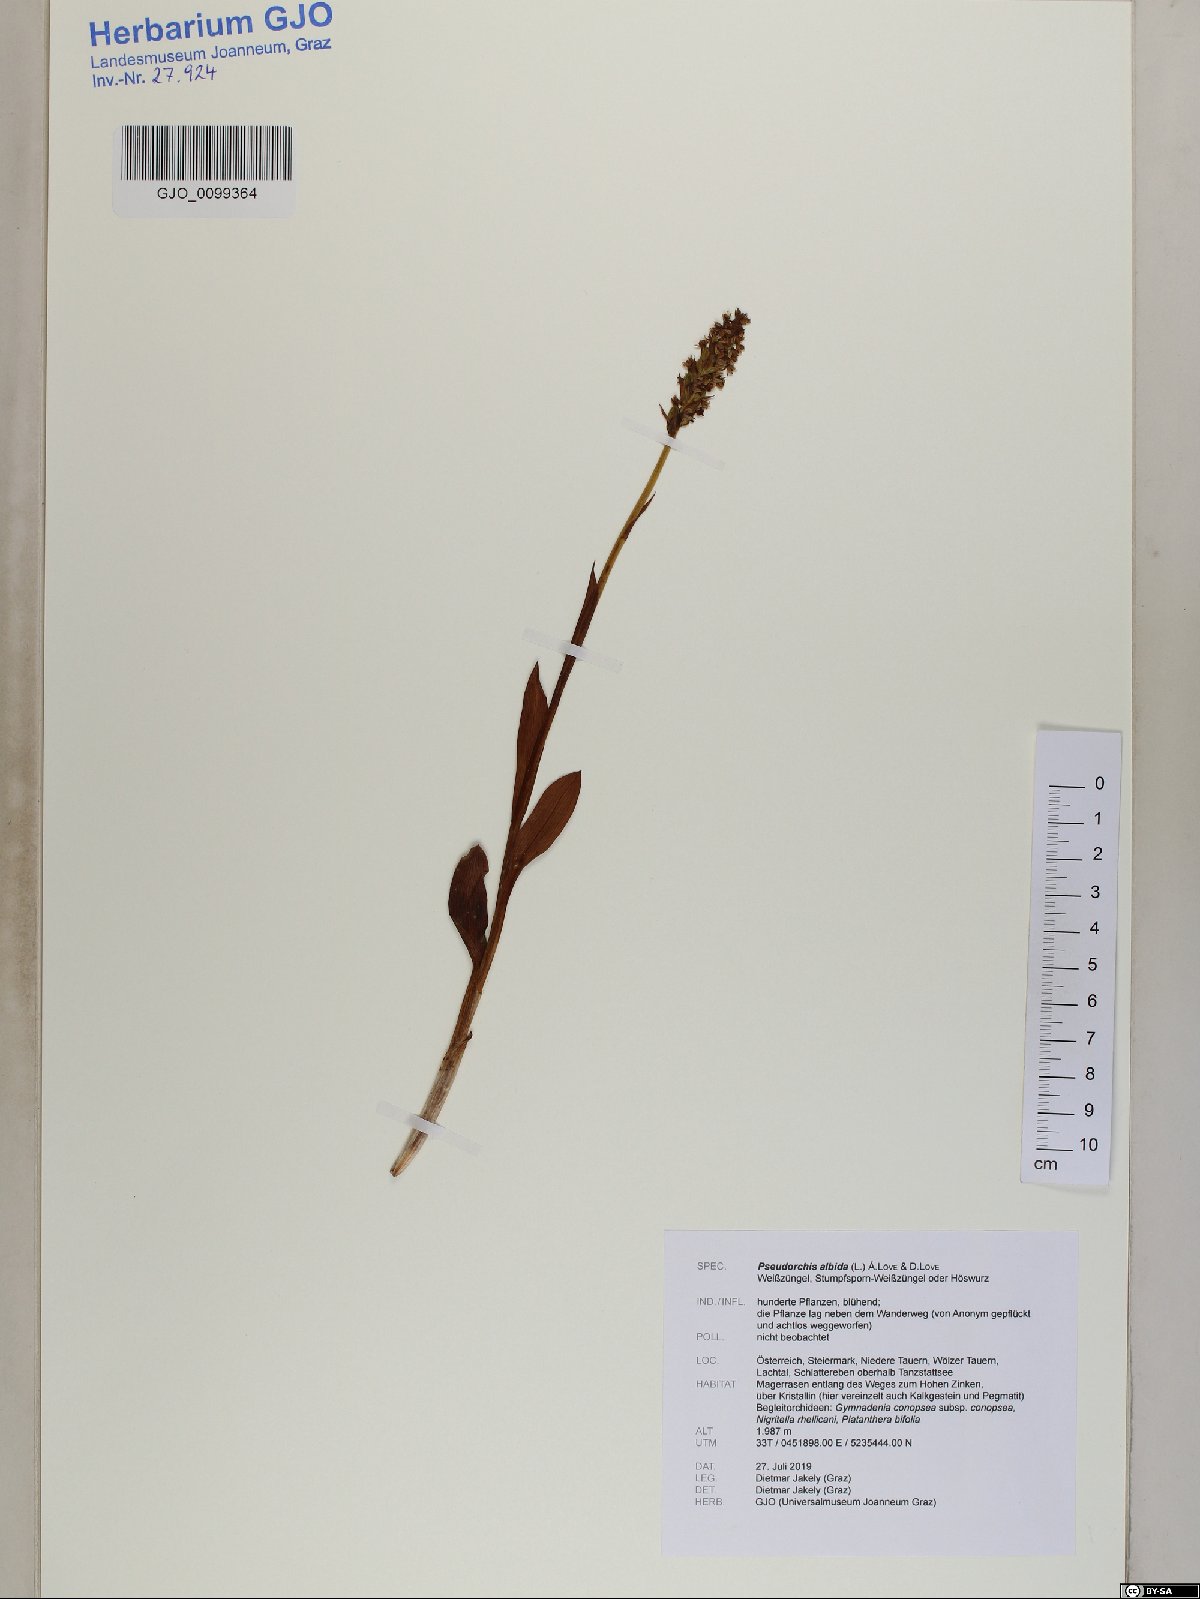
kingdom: Plantae
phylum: Tracheophyta
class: Liliopsida
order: Asparagales
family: Orchidaceae
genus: Pseudorchis
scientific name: Pseudorchis albida
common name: Small-white orchid
